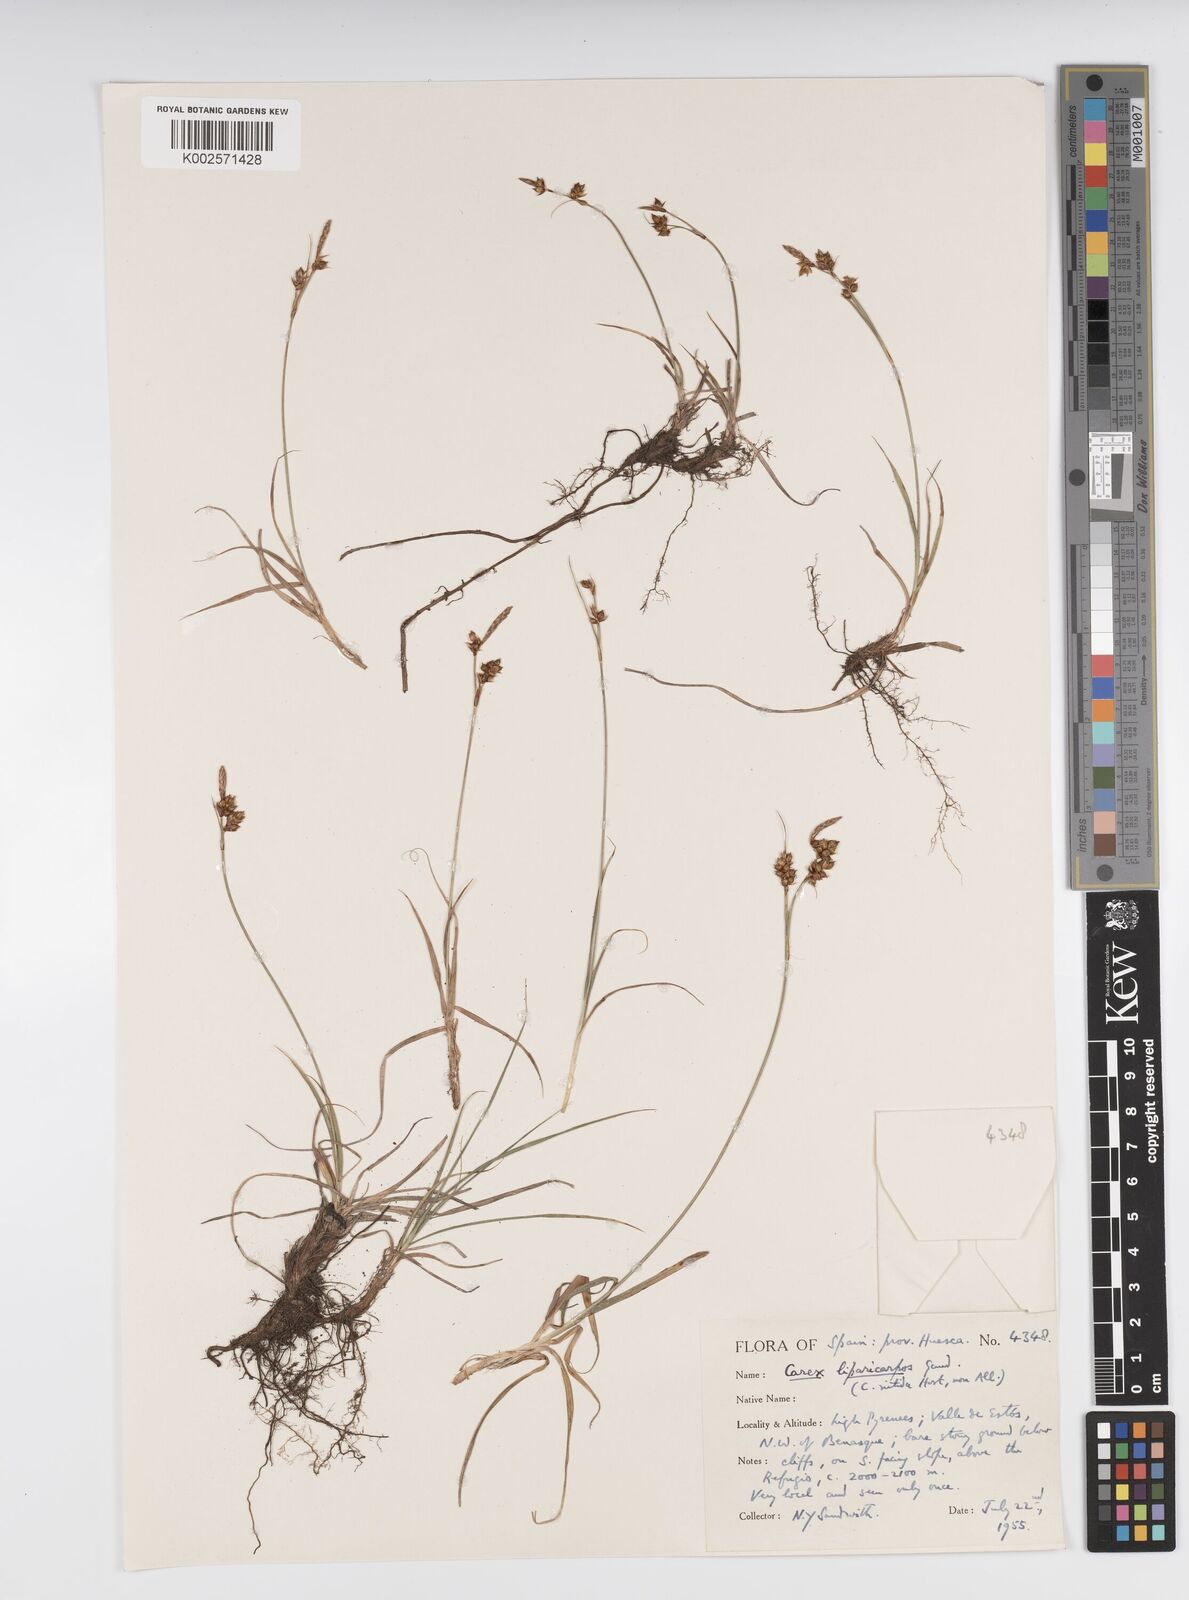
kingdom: Plantae
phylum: Tracheophyta
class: Liliopsida
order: Poales
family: Cyperaceae
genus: Carex
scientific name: Carex liparocarpos
